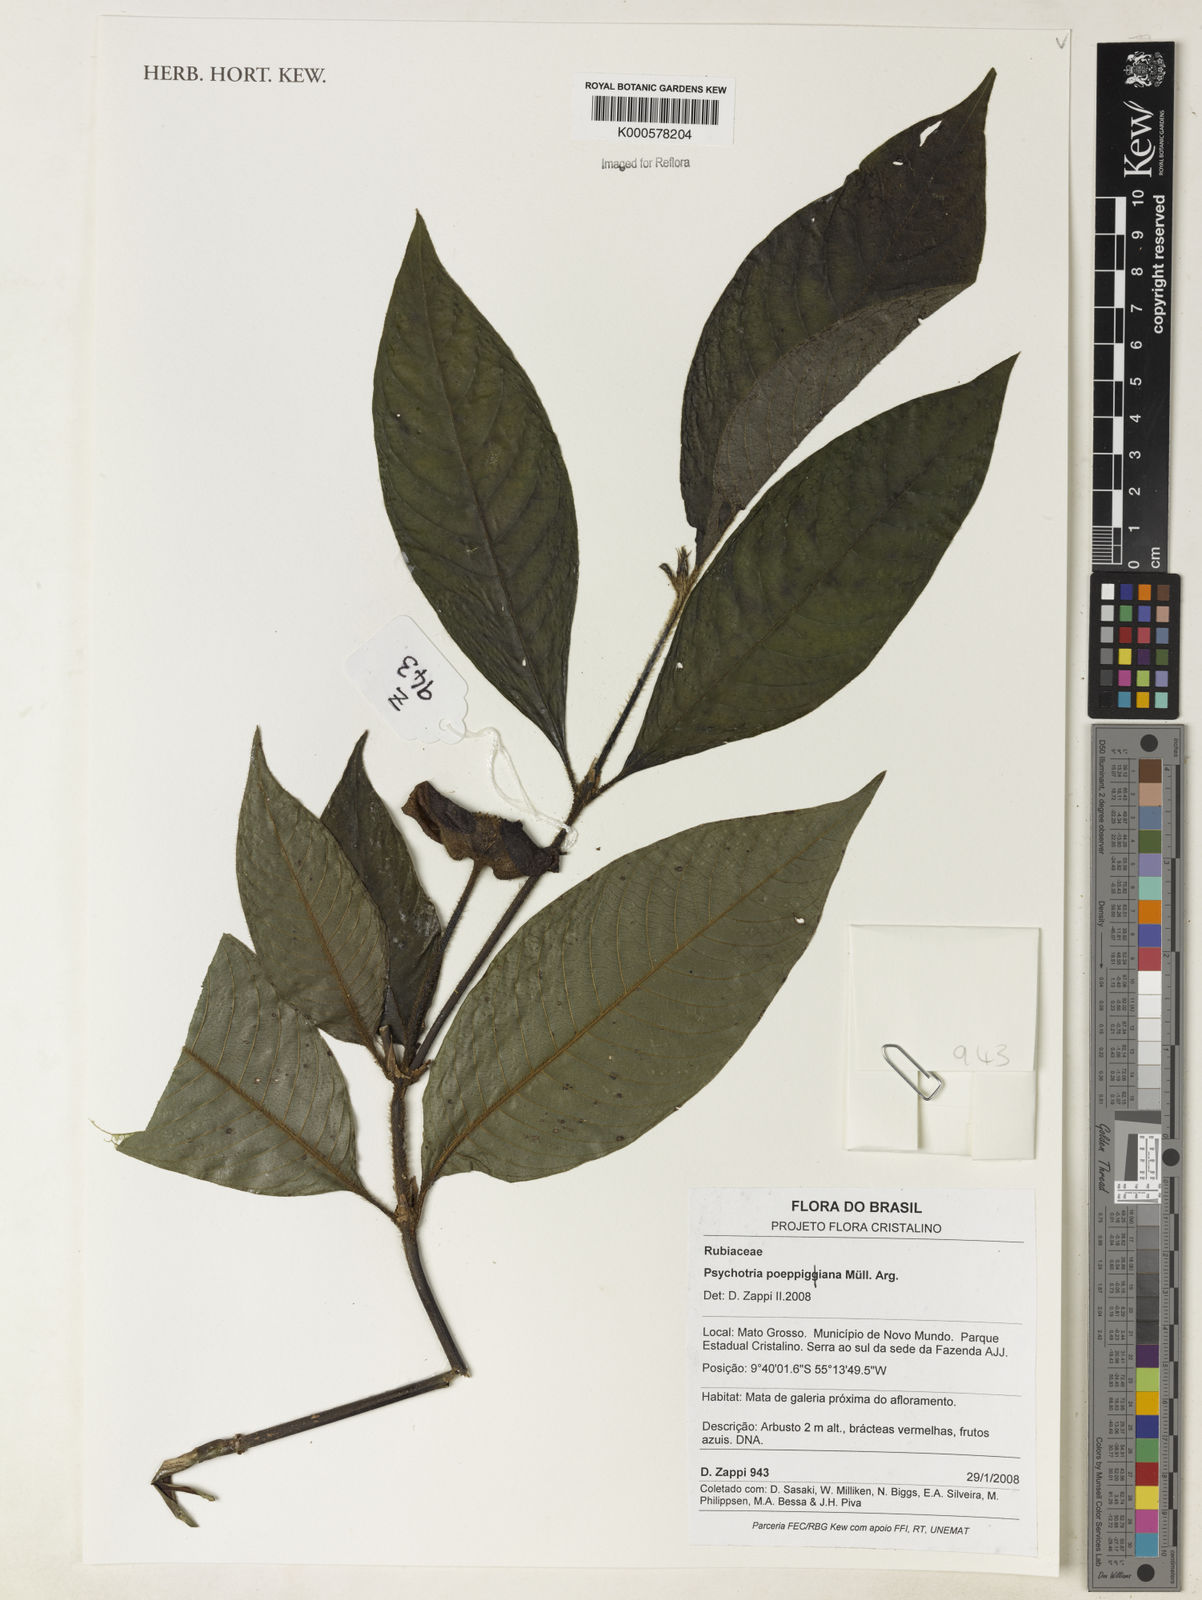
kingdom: Plantae
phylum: Tracheophyta
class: Magnoliopsida
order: Gentianales
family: Rubiaceae
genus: Psychotria
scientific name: Psychotria
